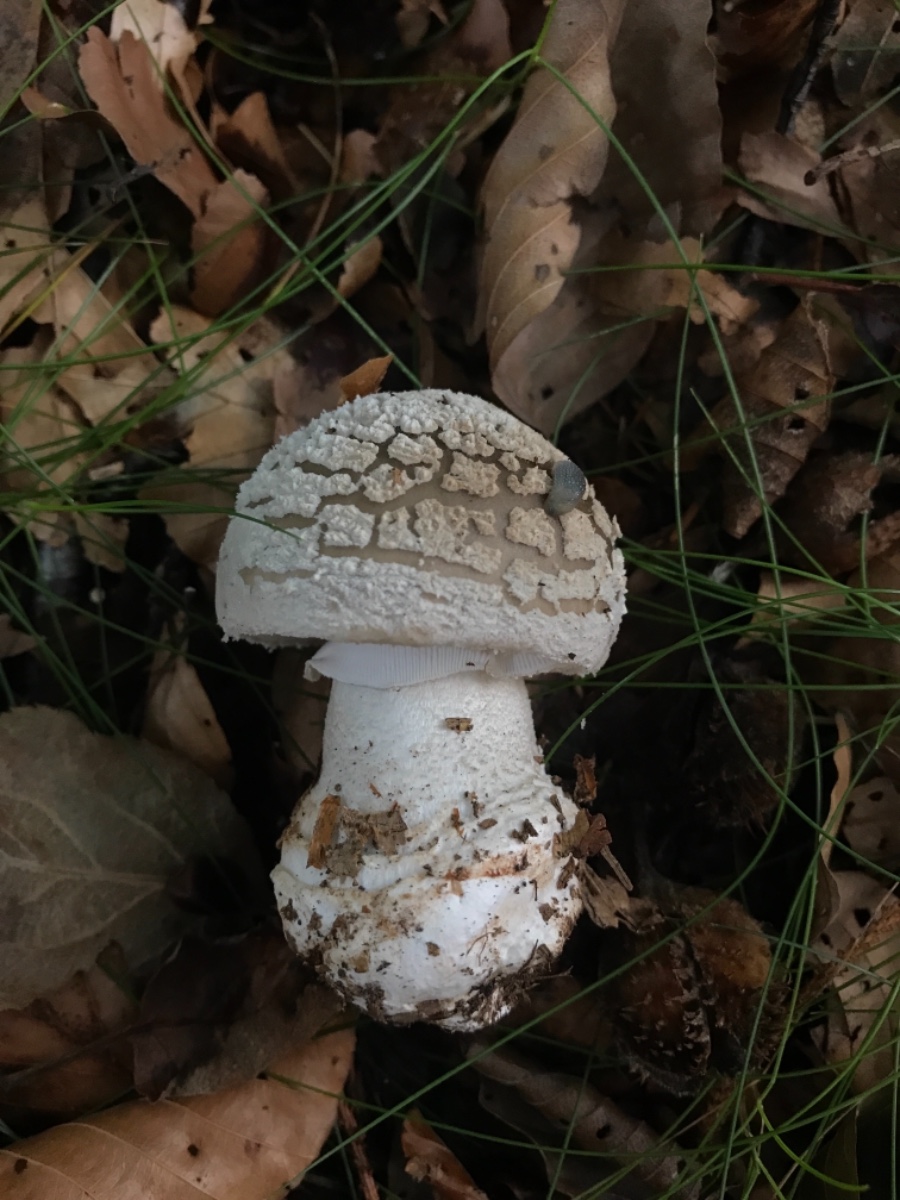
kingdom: Fungi
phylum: Basidiomycota
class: Agaricomycetes
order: Agaricales
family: Amanitaceae
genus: Amanita
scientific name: Amanita rubescens
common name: rødmende fluesvamp
